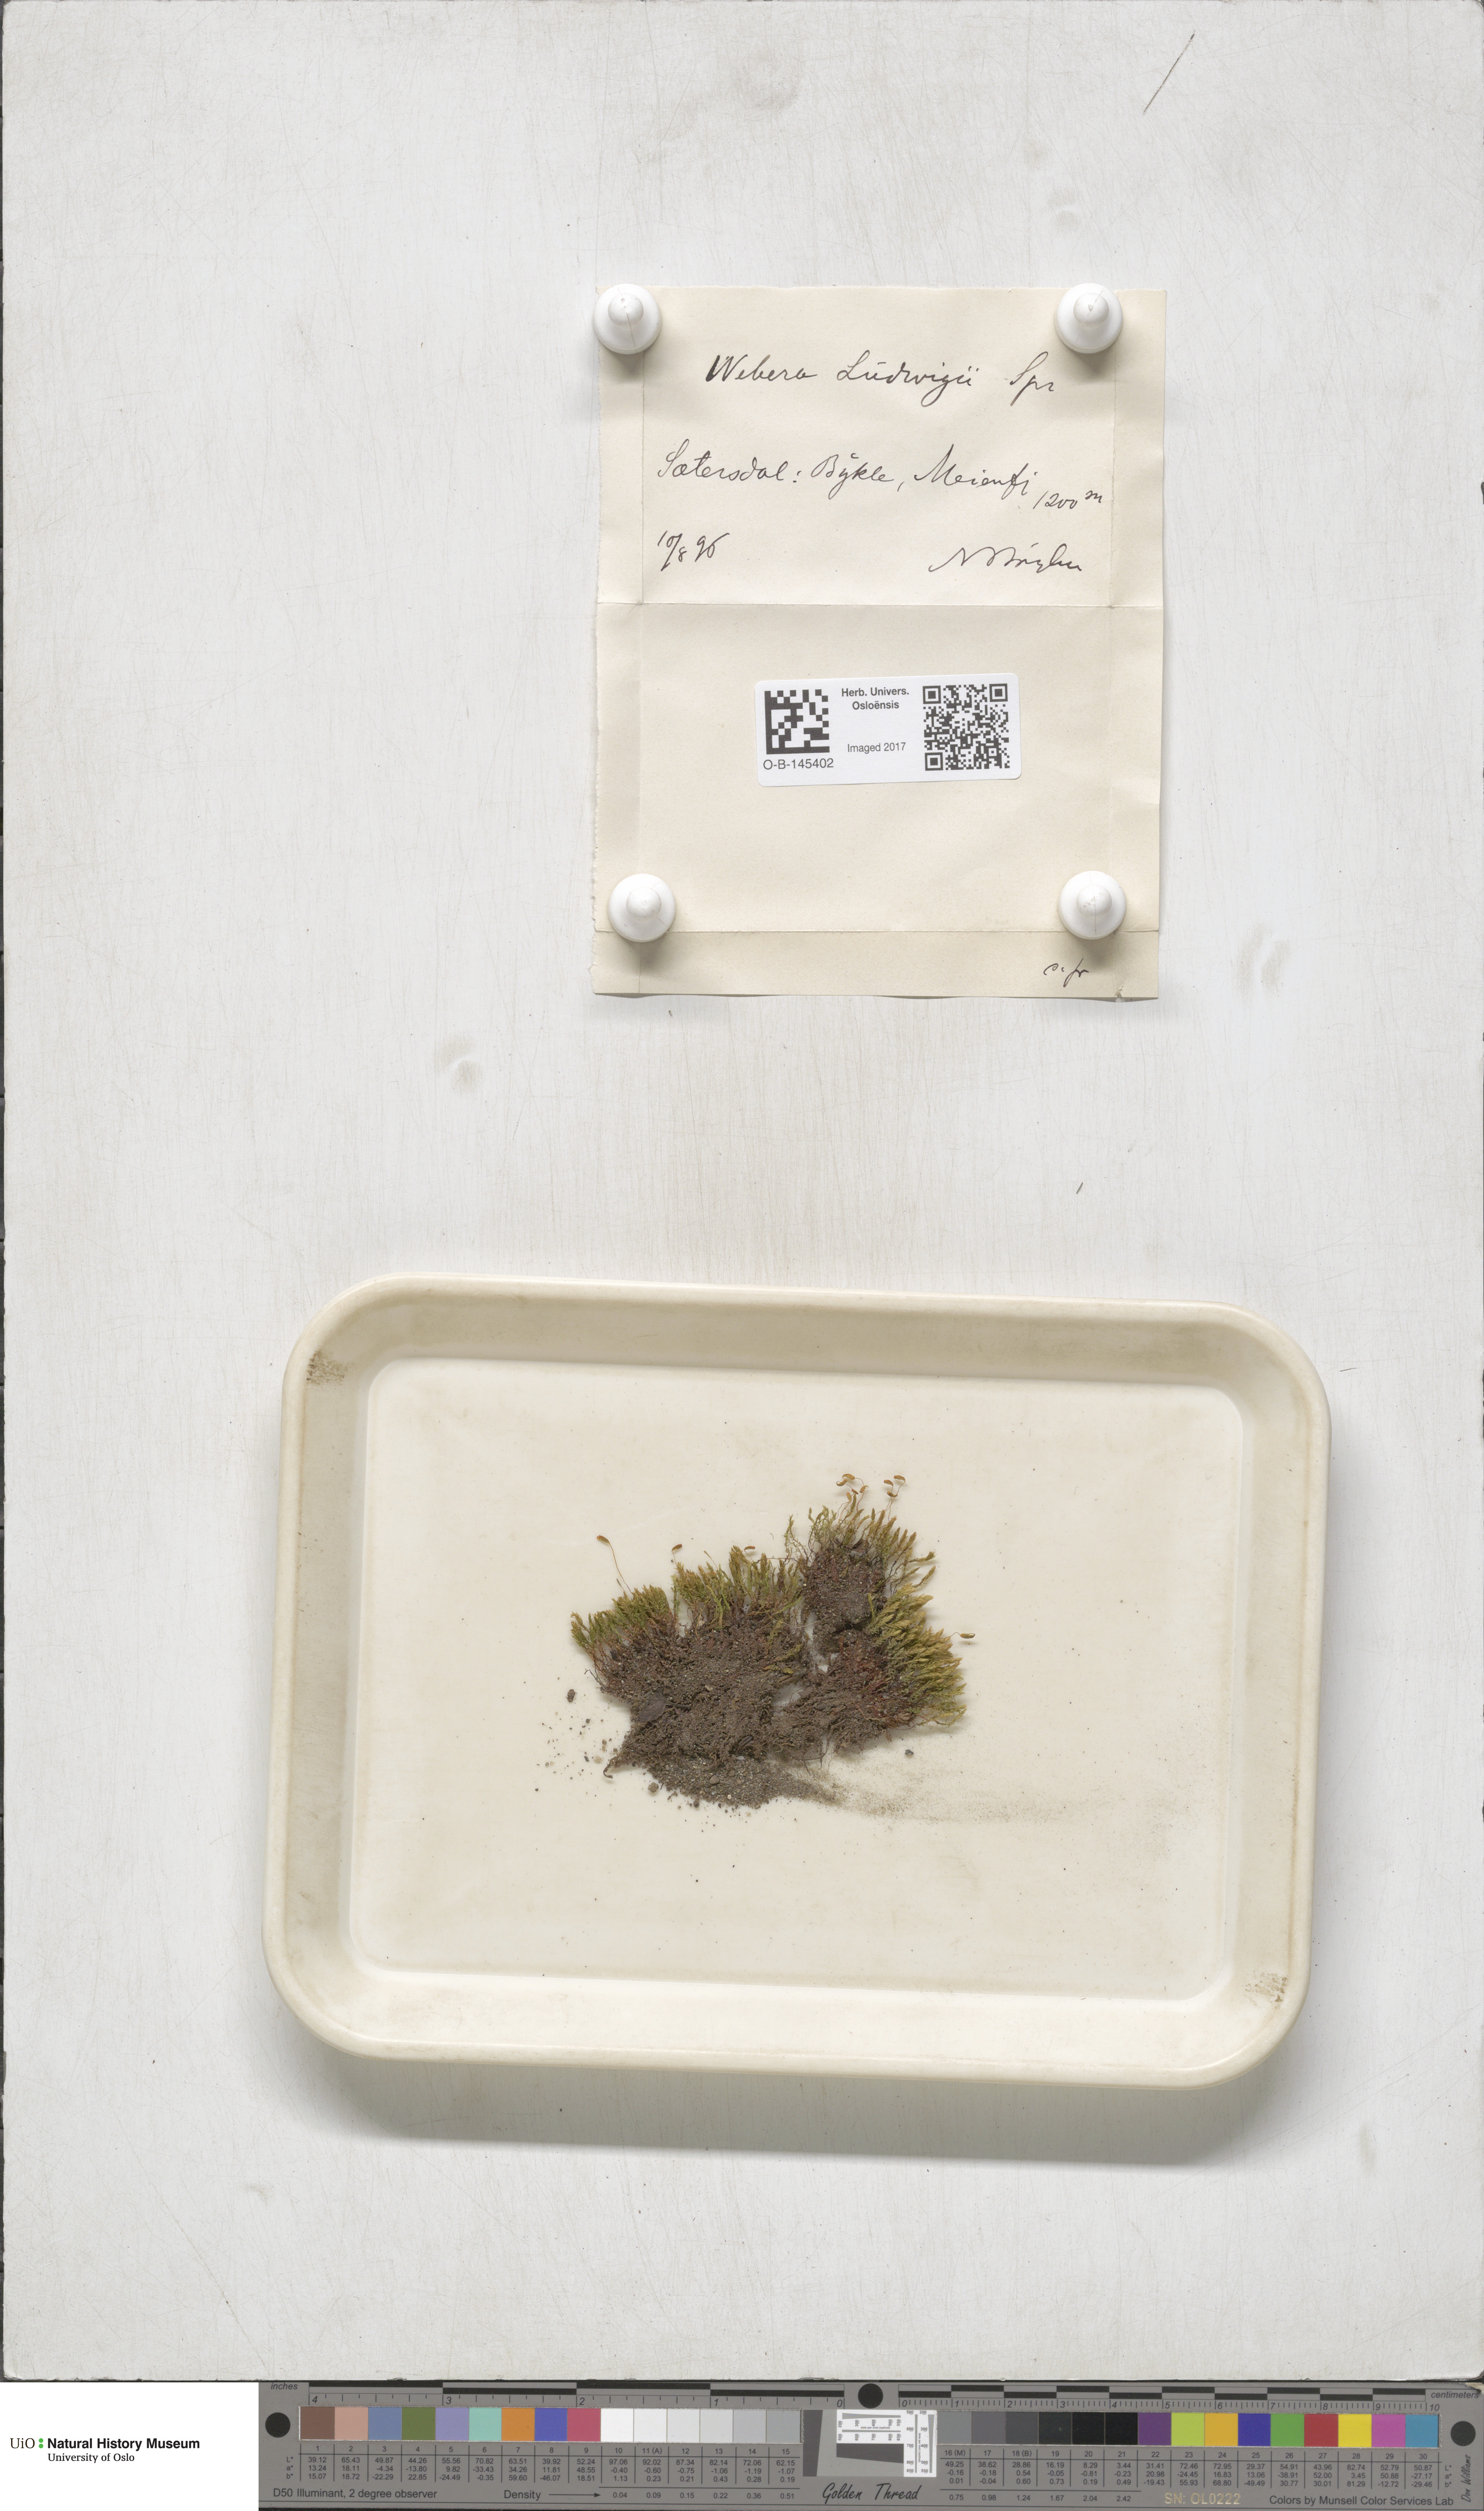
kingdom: Plantae
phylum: Bryophyta
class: Bryopsida
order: Bryales
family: Mniaceae
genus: Pohlia
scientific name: Pohlia ludwigii
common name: Ludwig's thread-moss
